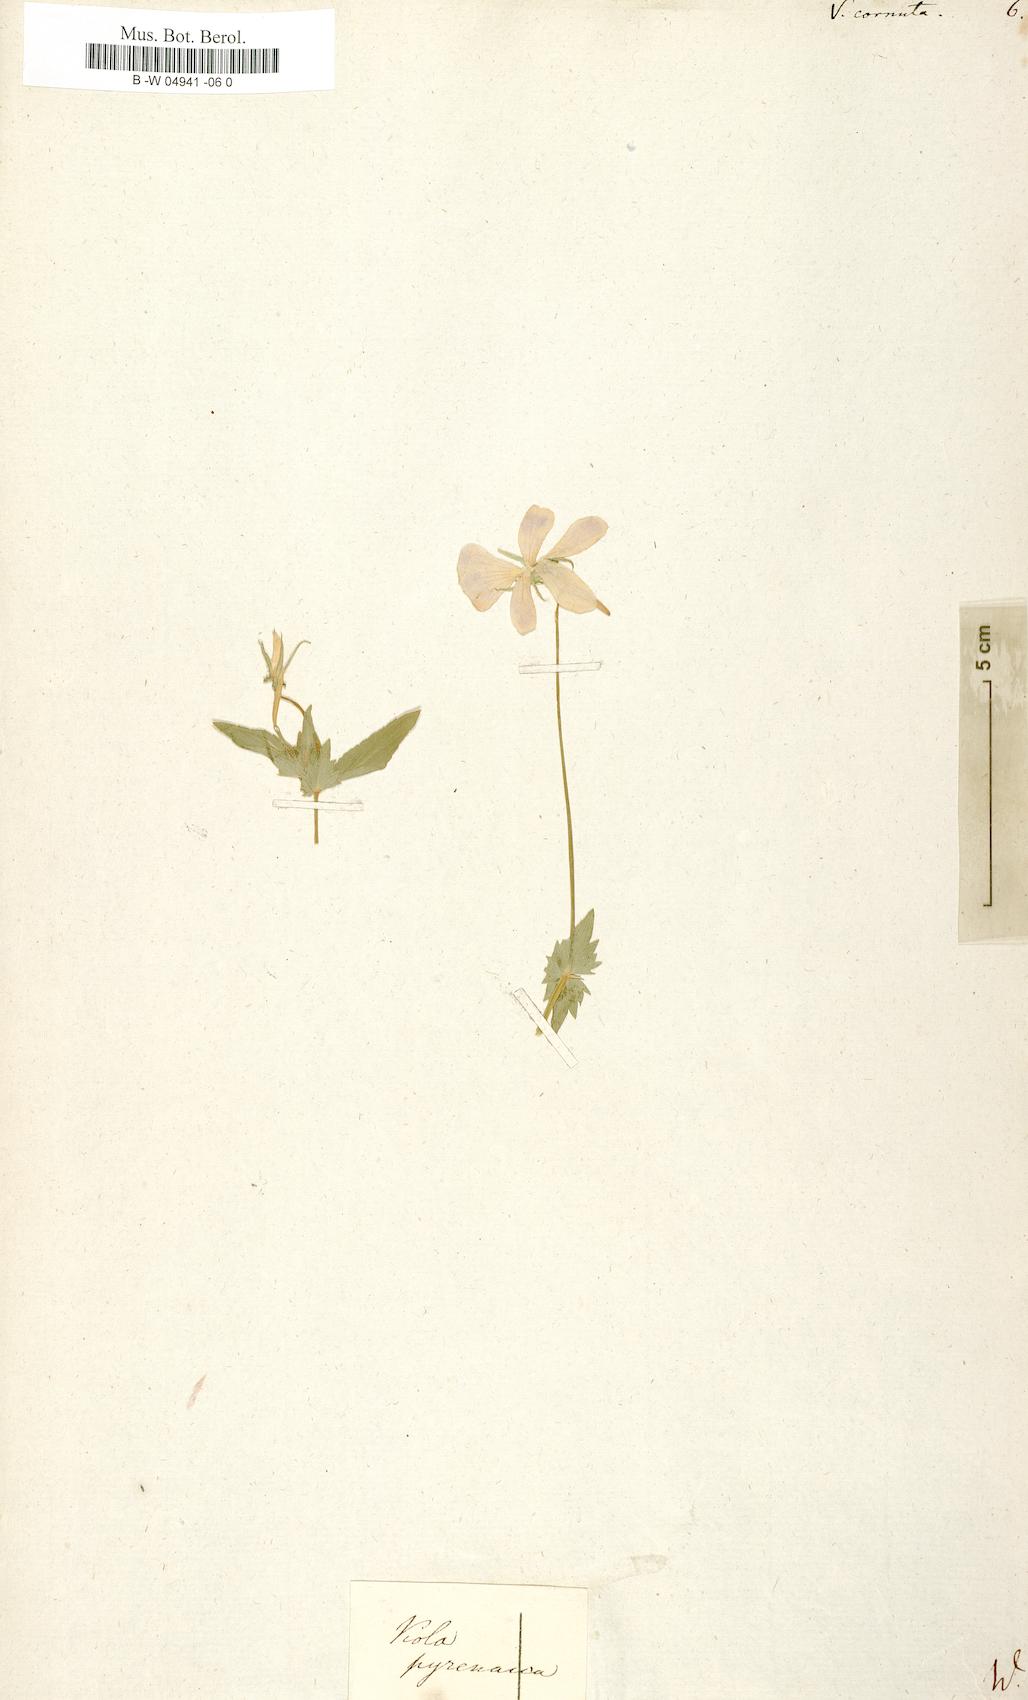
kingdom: Plantae
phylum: Tracheophyta
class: Magnoliopsida
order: Malpighiales
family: Violaceae
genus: Viola
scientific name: Viola cornuta
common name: Horned pansy
